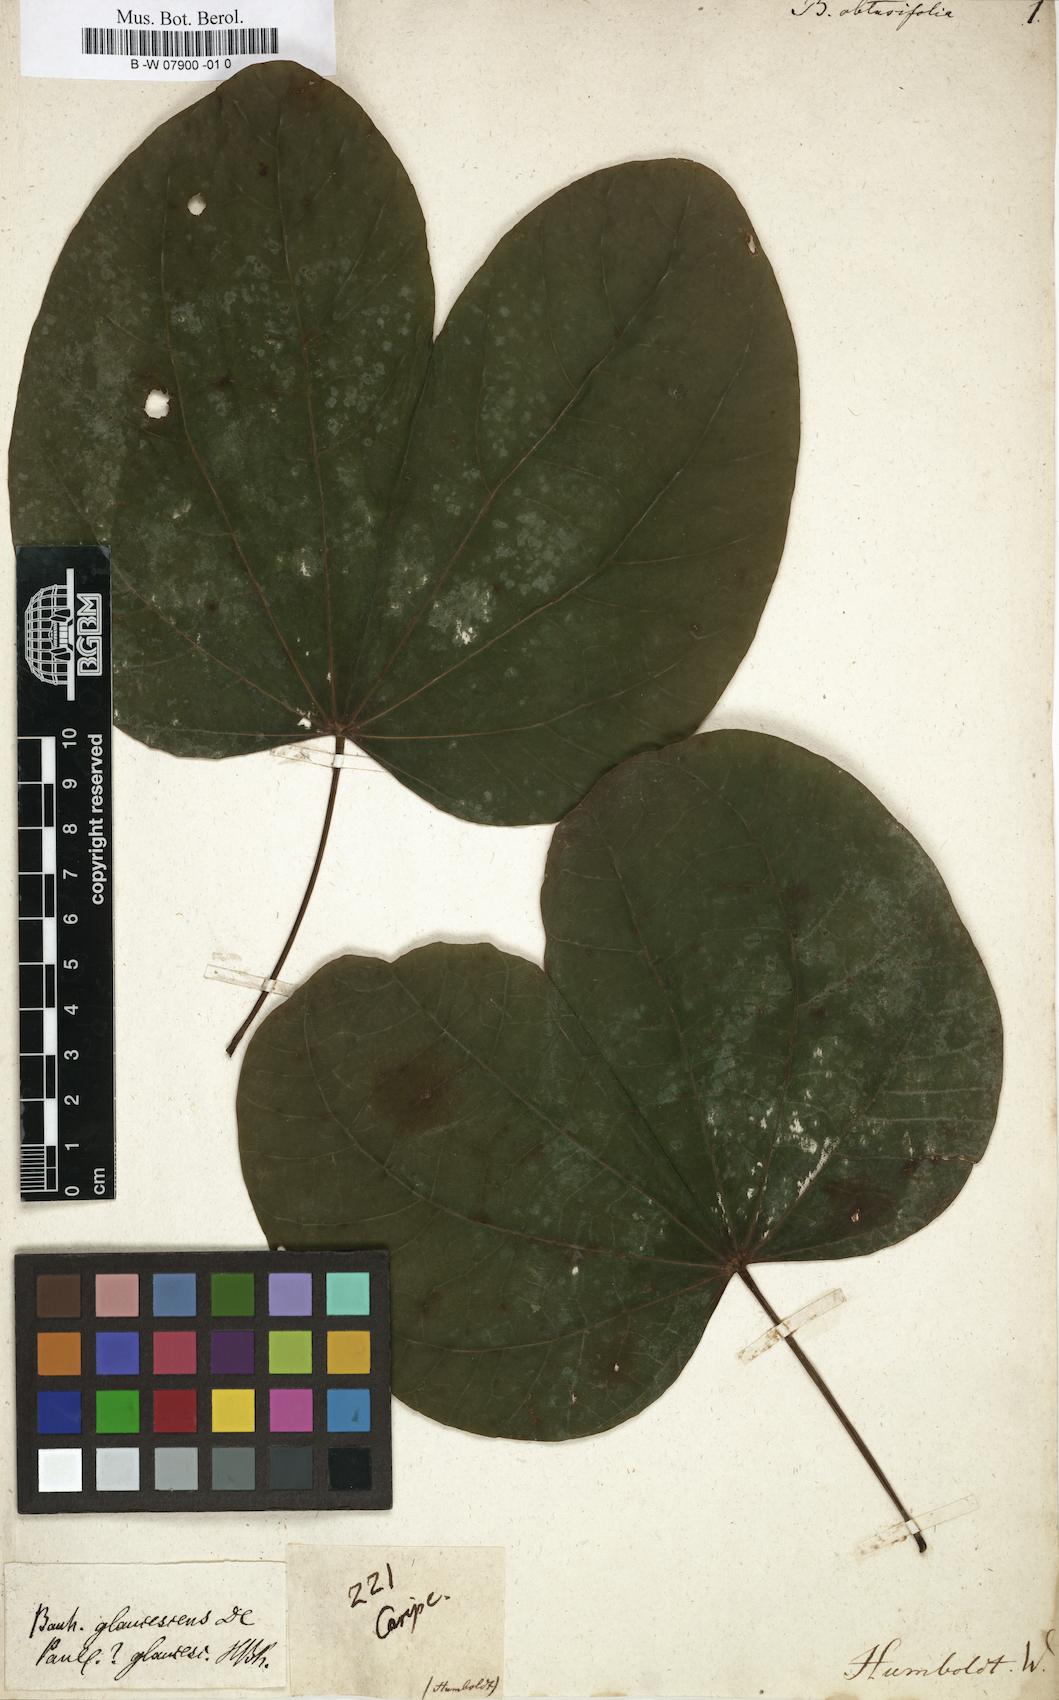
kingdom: Plantae
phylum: Tracheophyta
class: Magnoliopsida
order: Fabales
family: Fabaceae
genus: Bauhinia
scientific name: Bauhinia
